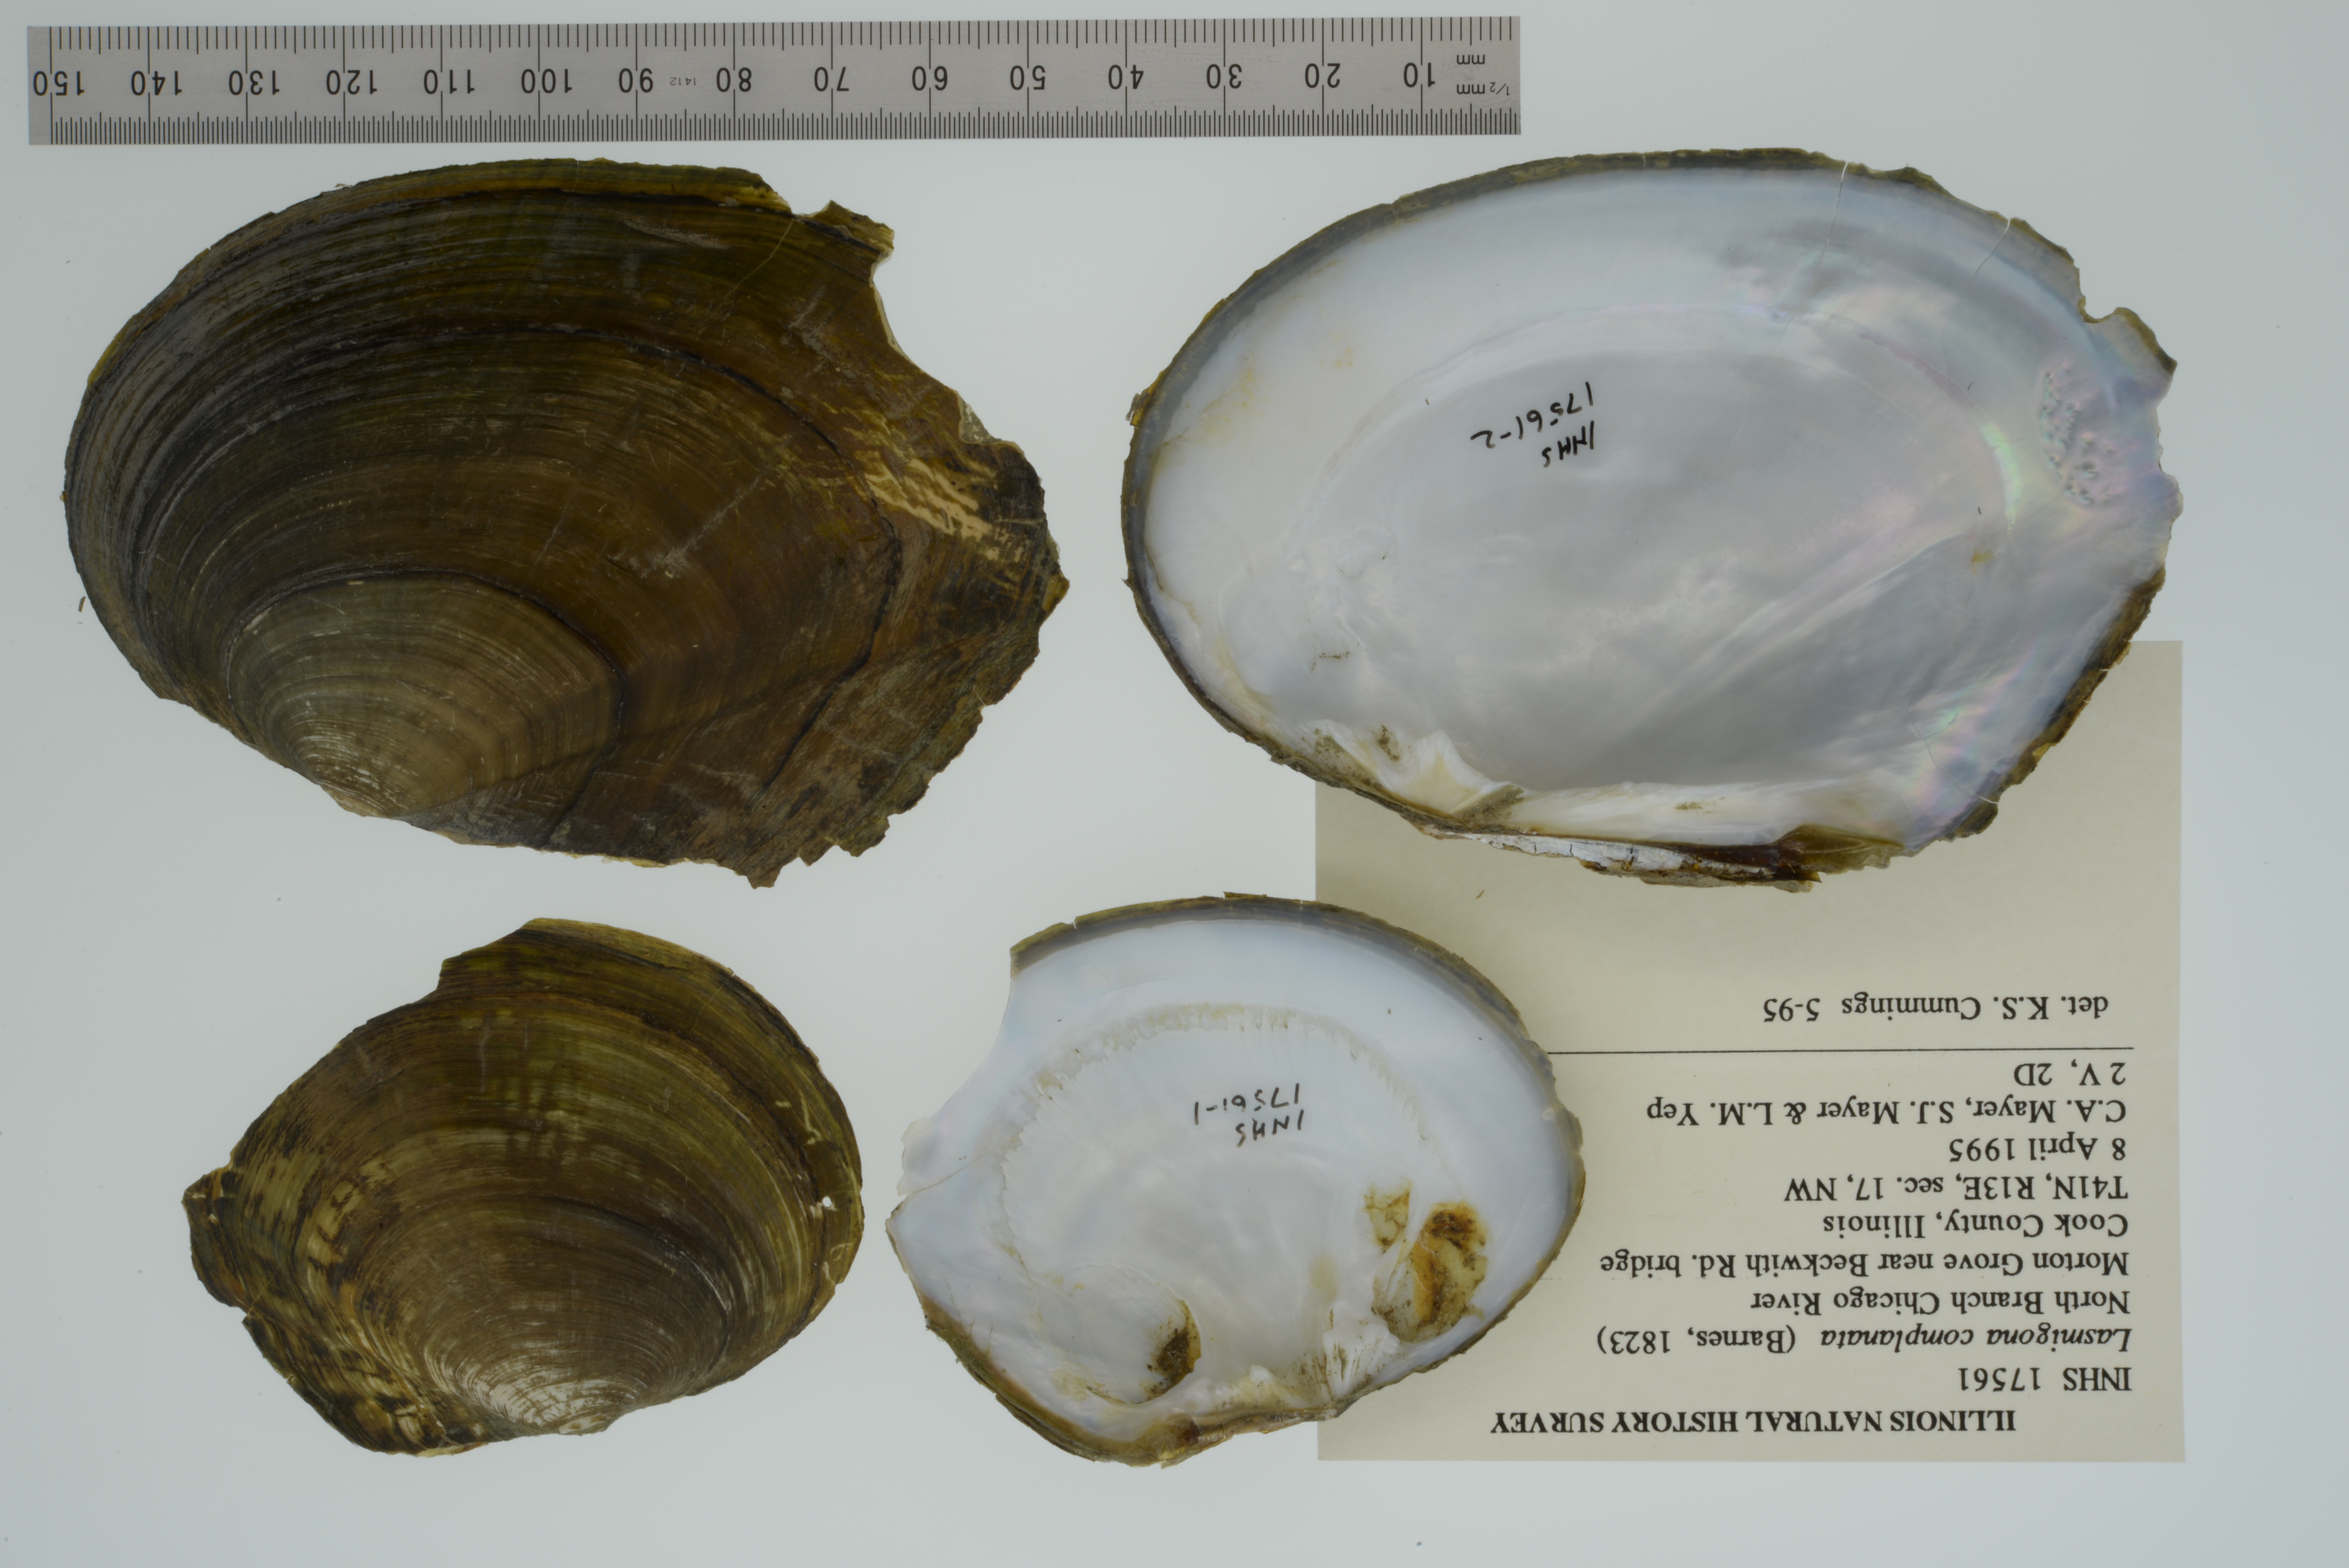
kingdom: Animalia
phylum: Mollusca
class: Bivalvia
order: Unionida
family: Unionidae
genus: Lasmigona
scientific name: Lasmigona complanata
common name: White heelsplitter
